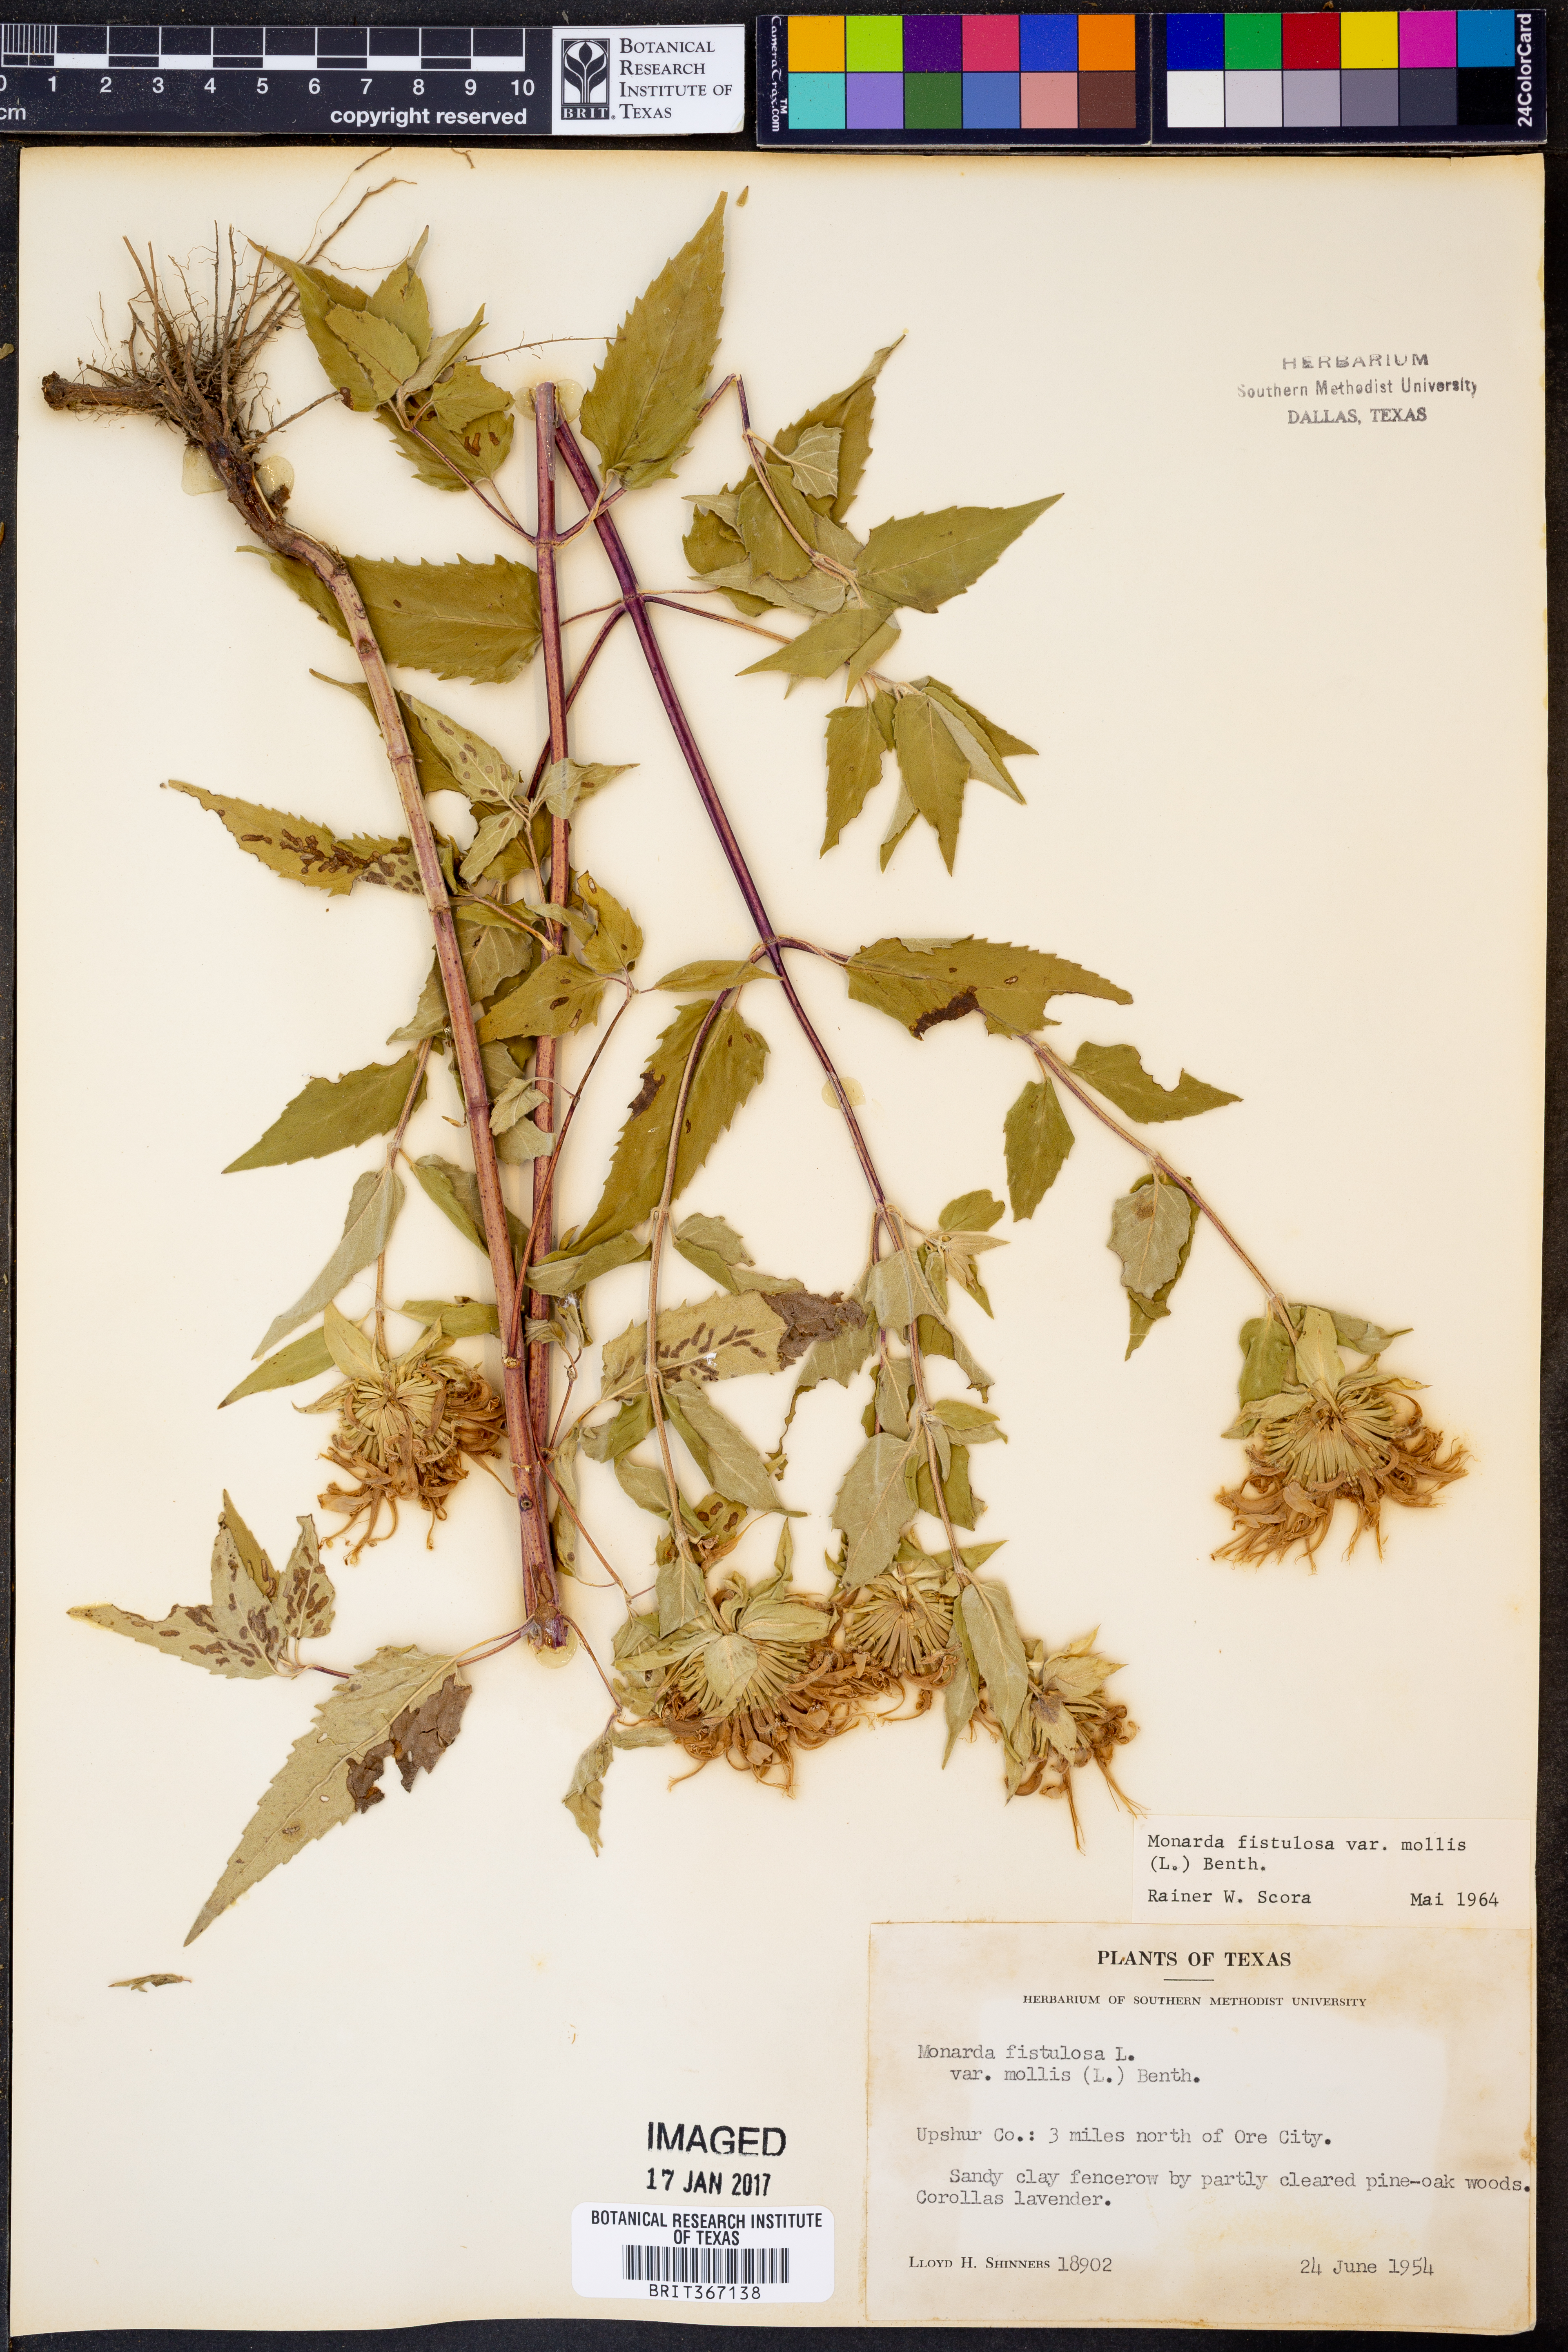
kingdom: Plantae
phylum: Tracheophyta
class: Magnoliopsida
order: Lamiales
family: Lamiaceae
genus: Monarda
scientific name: Monarda fistulosa
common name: Purple beebalm
